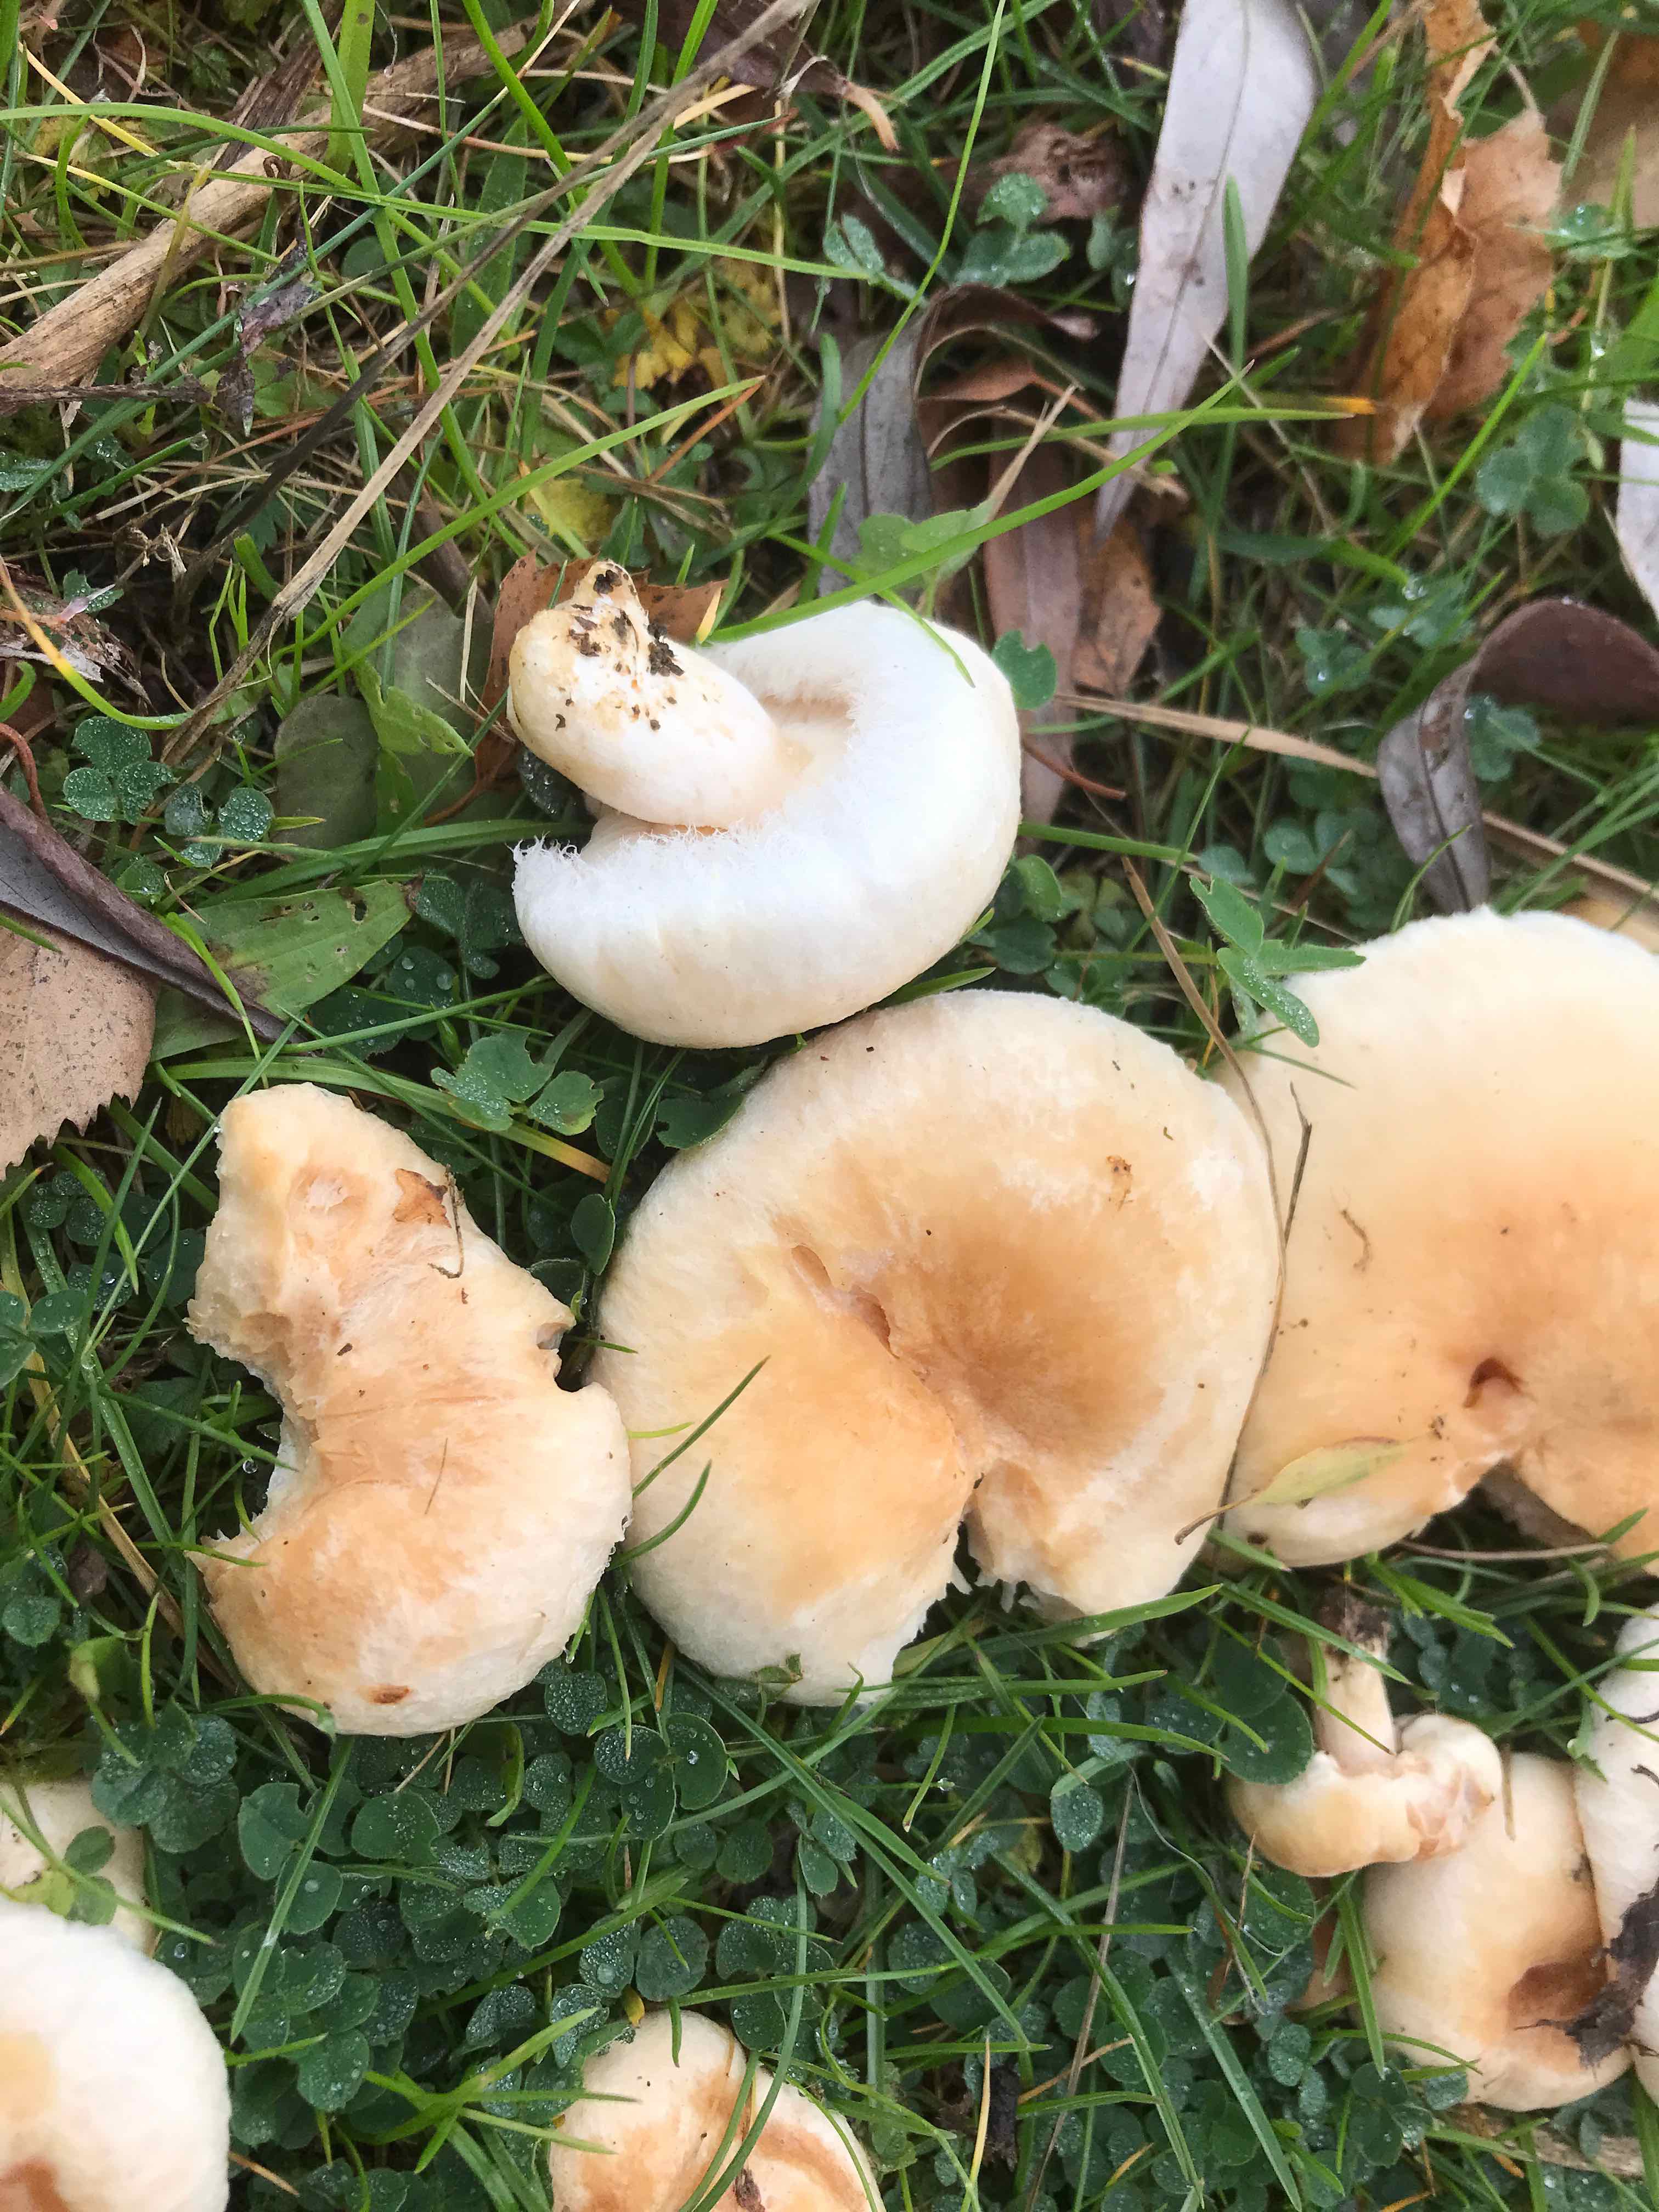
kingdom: Fungi
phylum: Basidiomycota
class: Agaricomycetes
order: Russulales
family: Russulaceae
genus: Lactarius
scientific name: Lactarius pubescens
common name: dunet mælkehat
